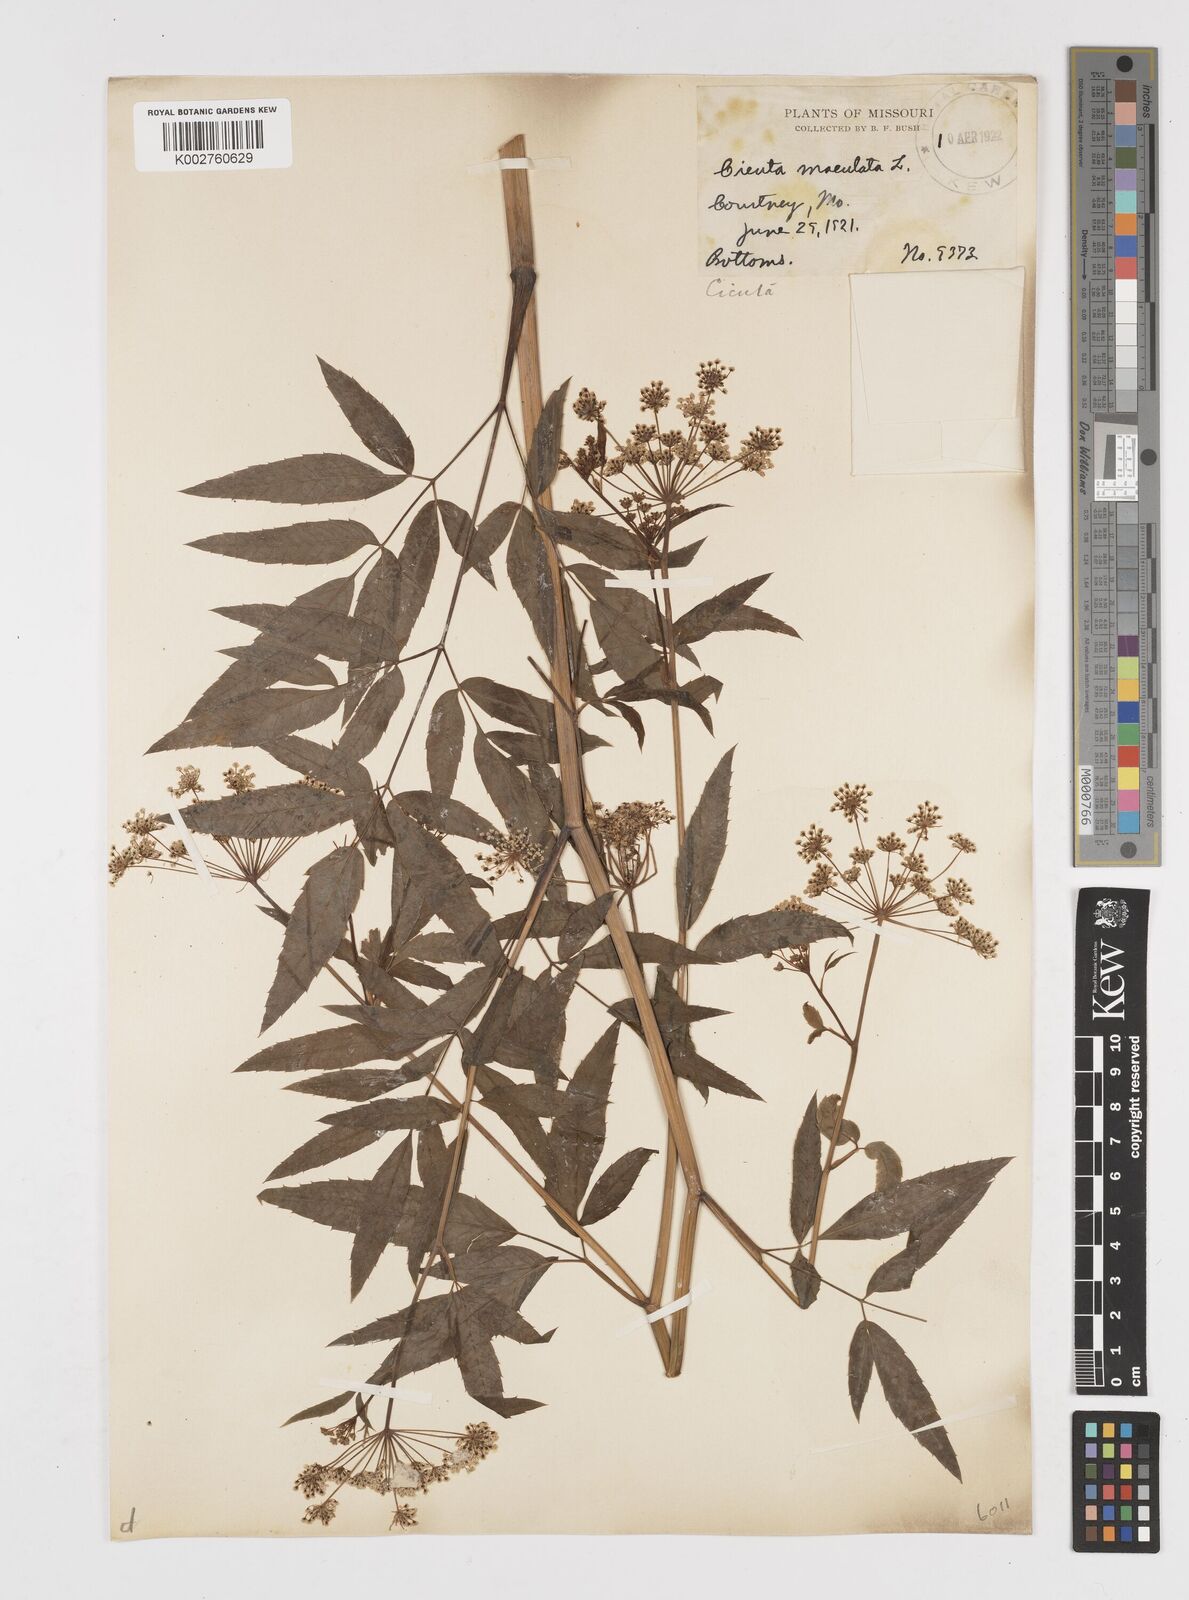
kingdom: Plantae
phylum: Tracheophyta
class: Magnoliopsida
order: Apiales
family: Apiaceae
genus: Cicuta
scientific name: Cicuta maculata
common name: Spotted cowbane
